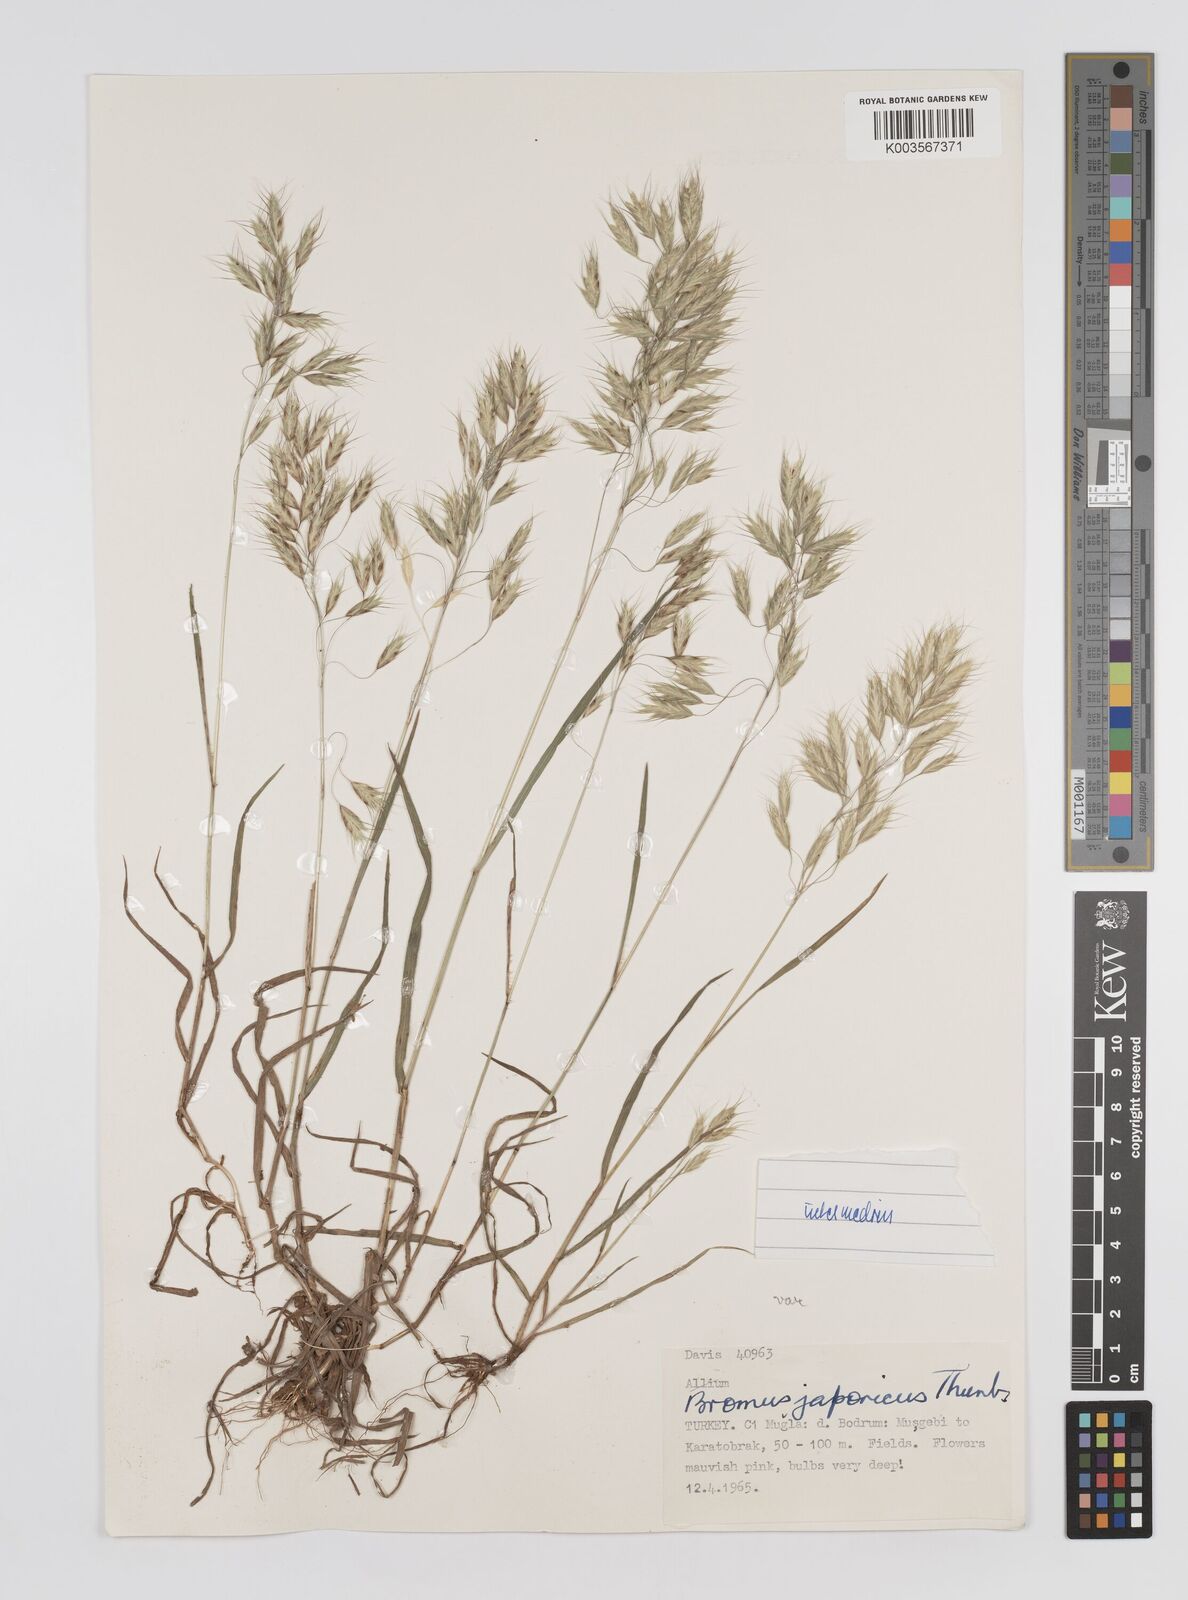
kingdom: Plantae
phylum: Tracheophyta
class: Liliopsida
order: Poales
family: Poaceae
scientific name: Poaceae
